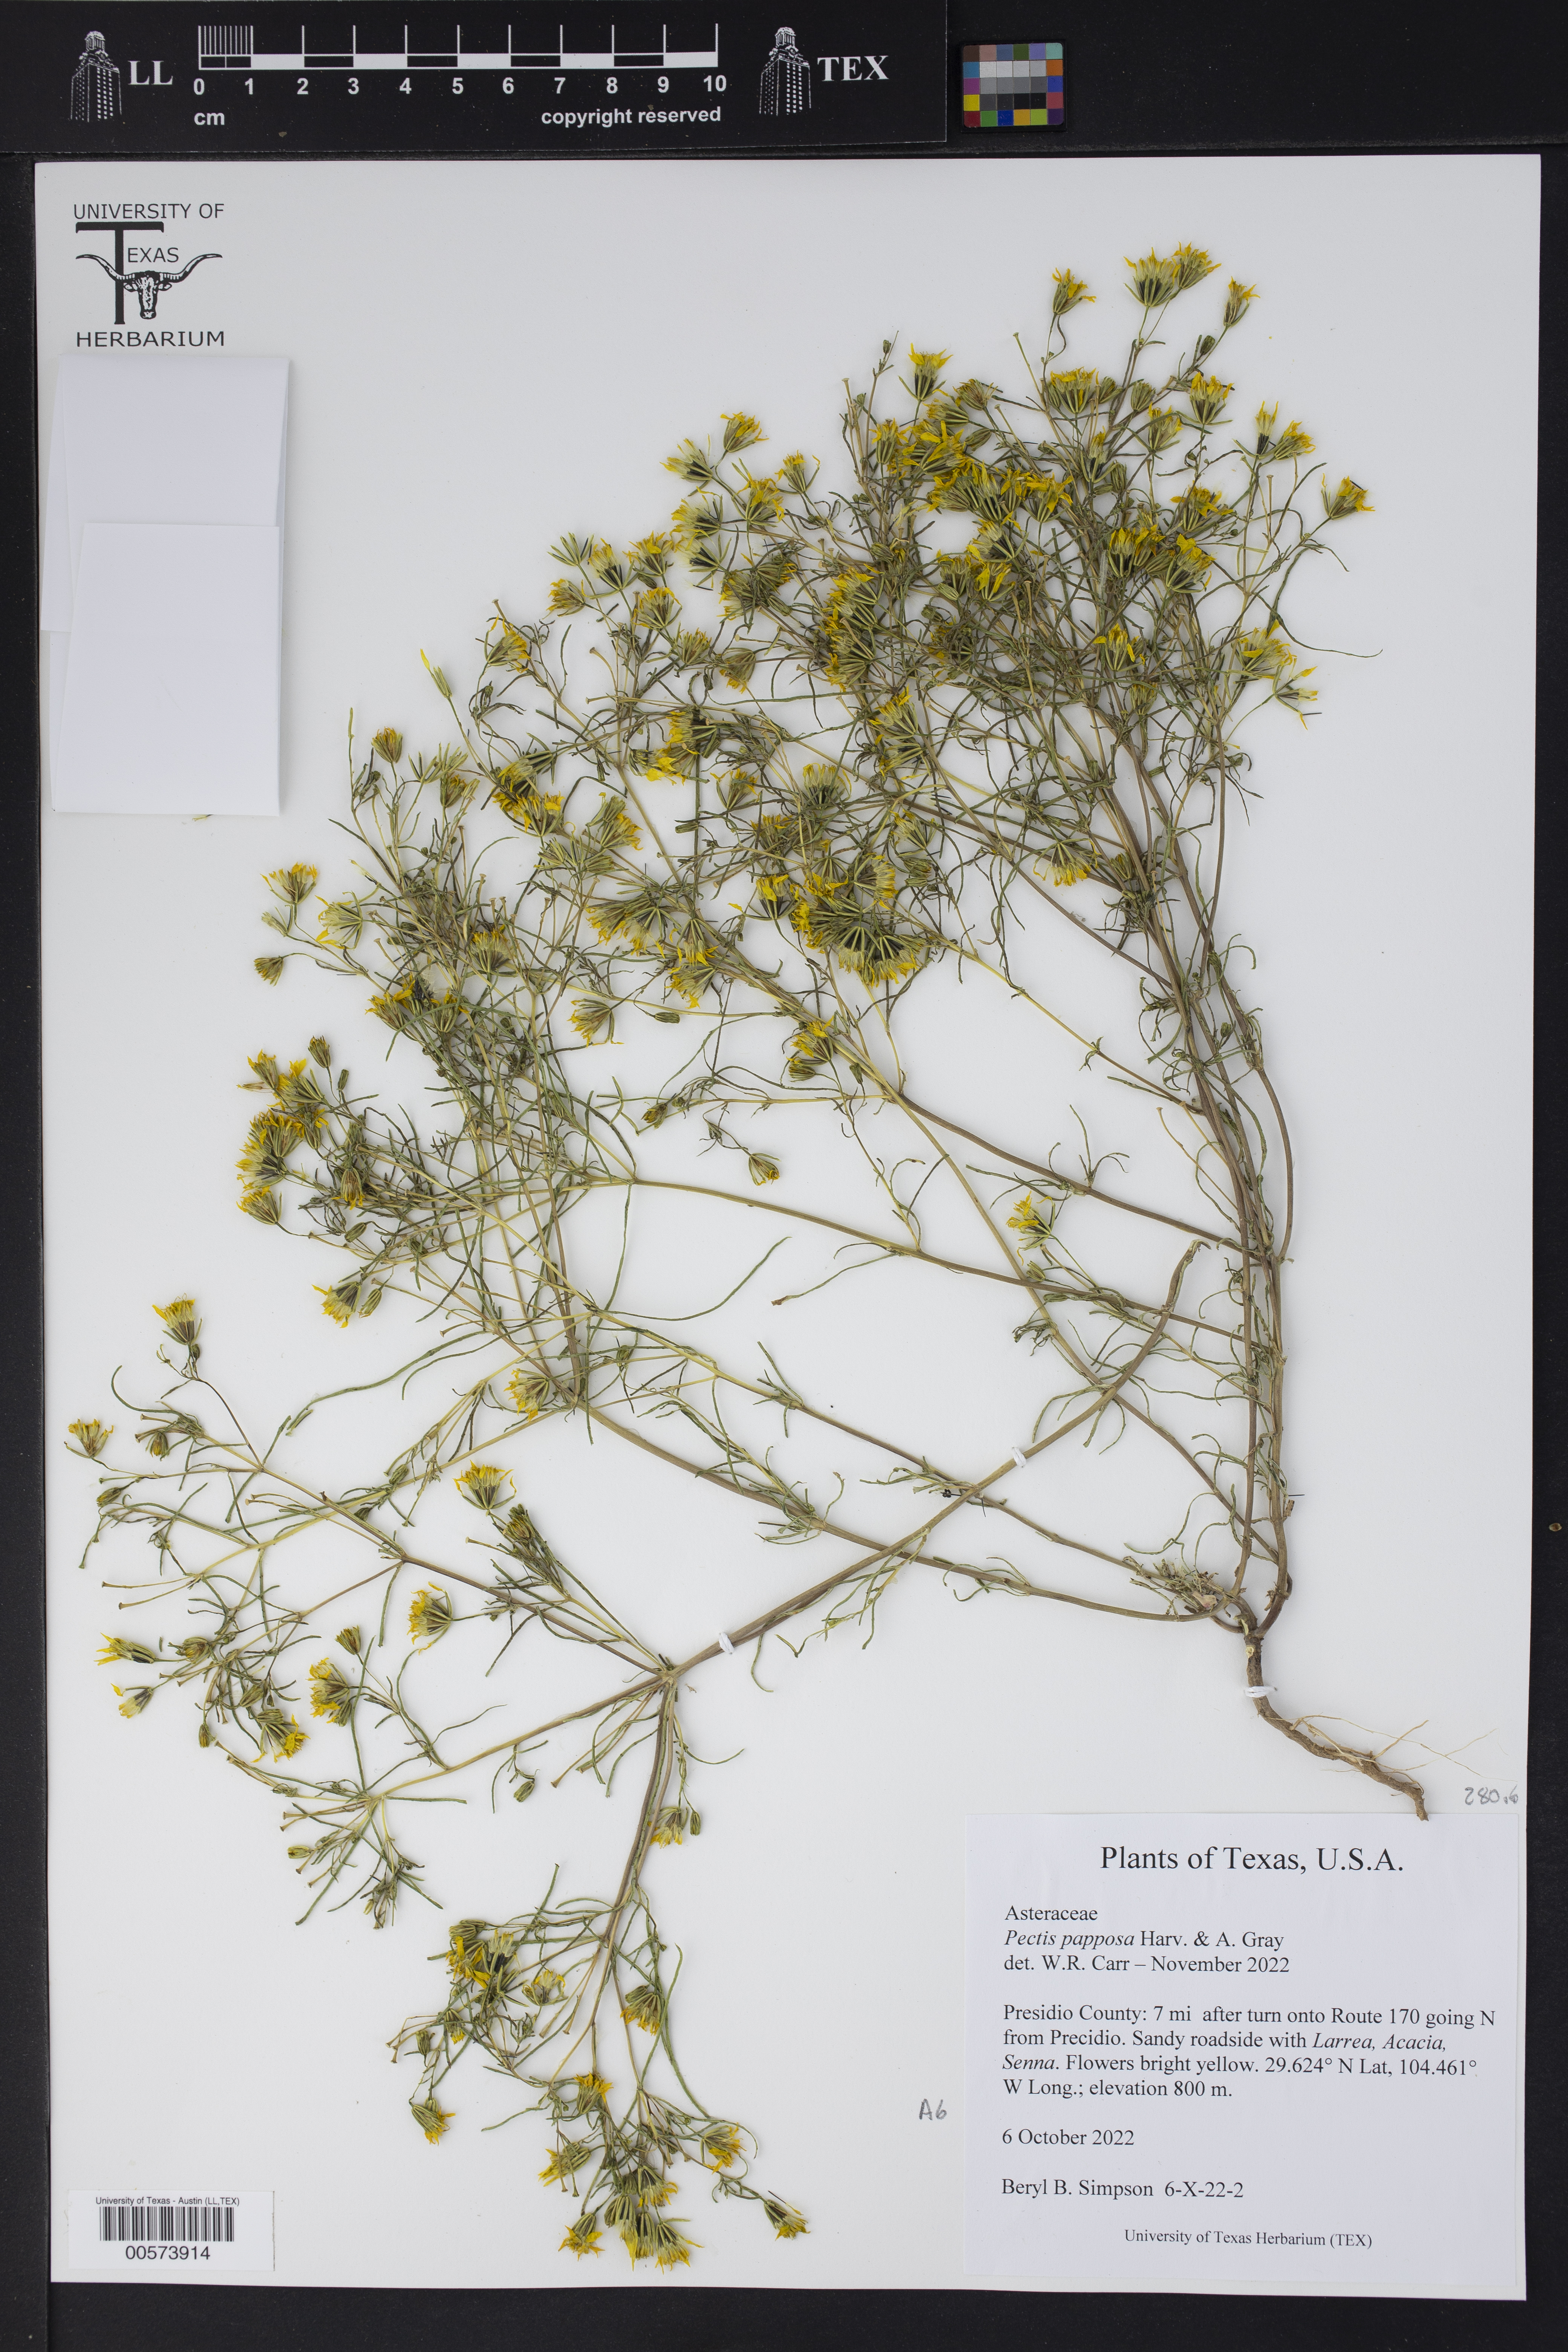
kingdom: Plantae
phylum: Tracheophyta
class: Magnoliopsida
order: Asterales
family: Asteraceae
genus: Pectis
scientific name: Pectis papposa
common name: Many-bristle chinchweed
